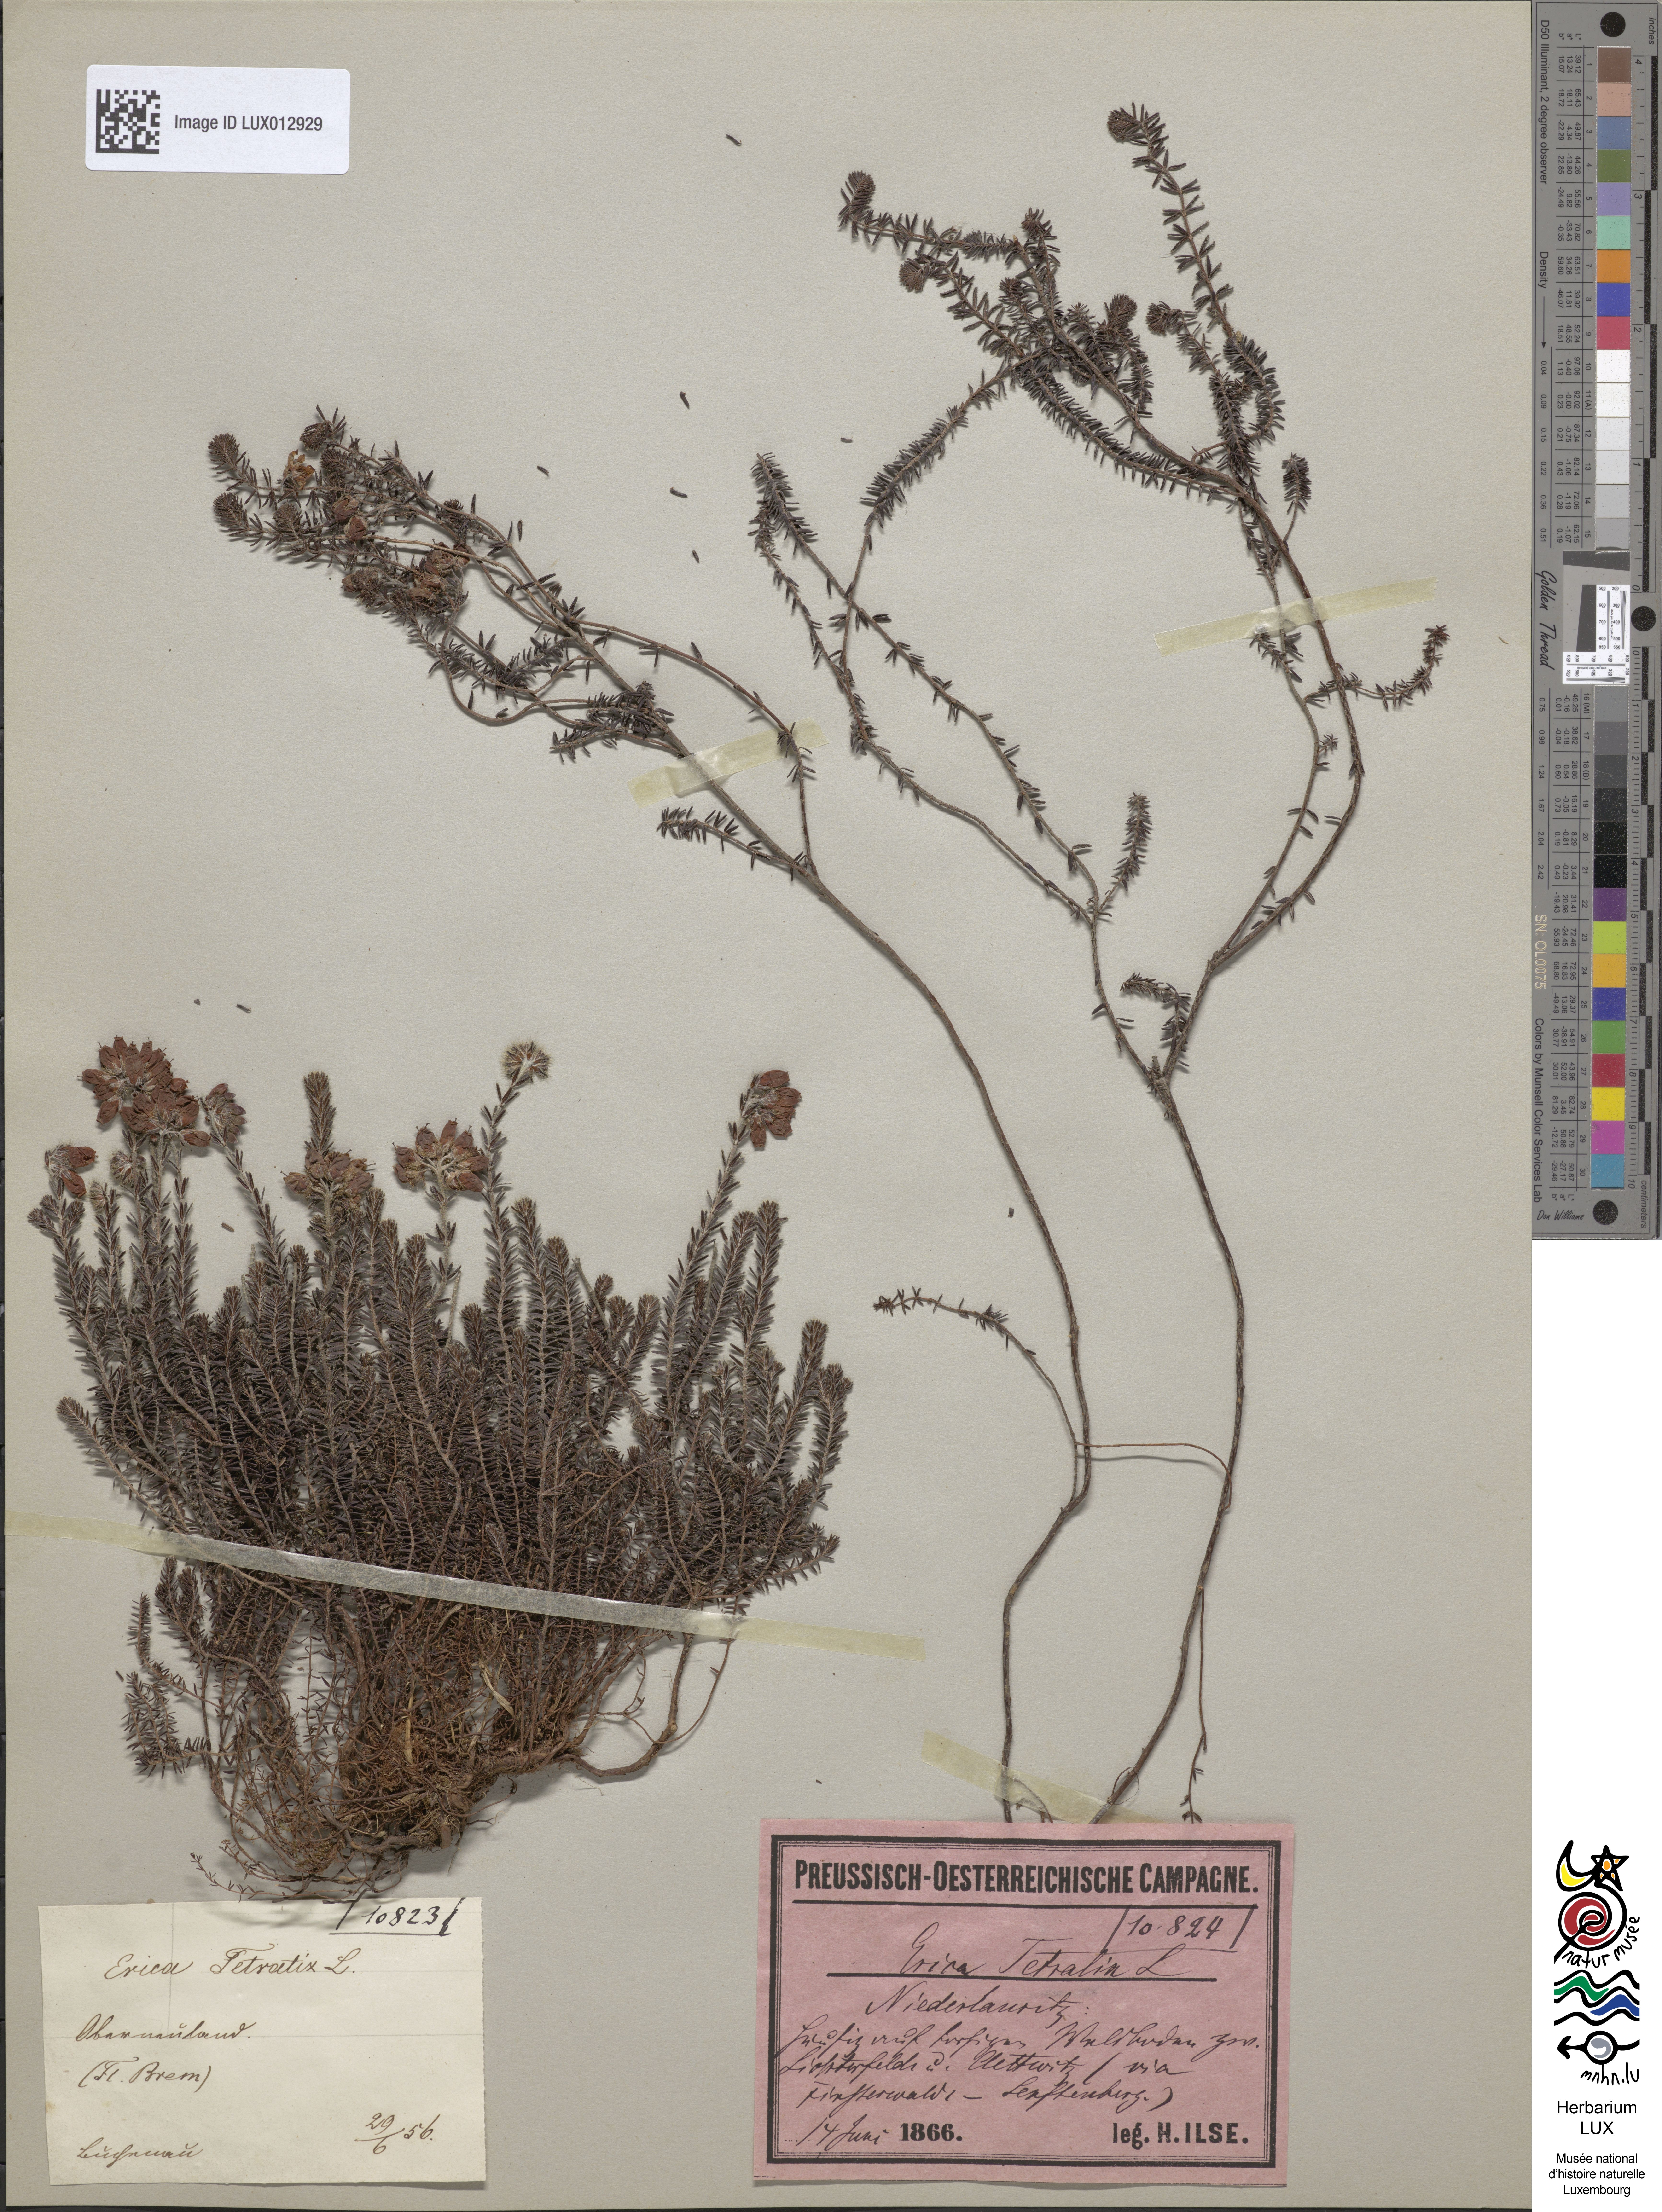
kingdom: Plantae
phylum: Tracheophyta
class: Magnoliopsida
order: Ericales
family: Ericaceae
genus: Erica
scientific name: Erica tetralix
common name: Cross-leaved heath
